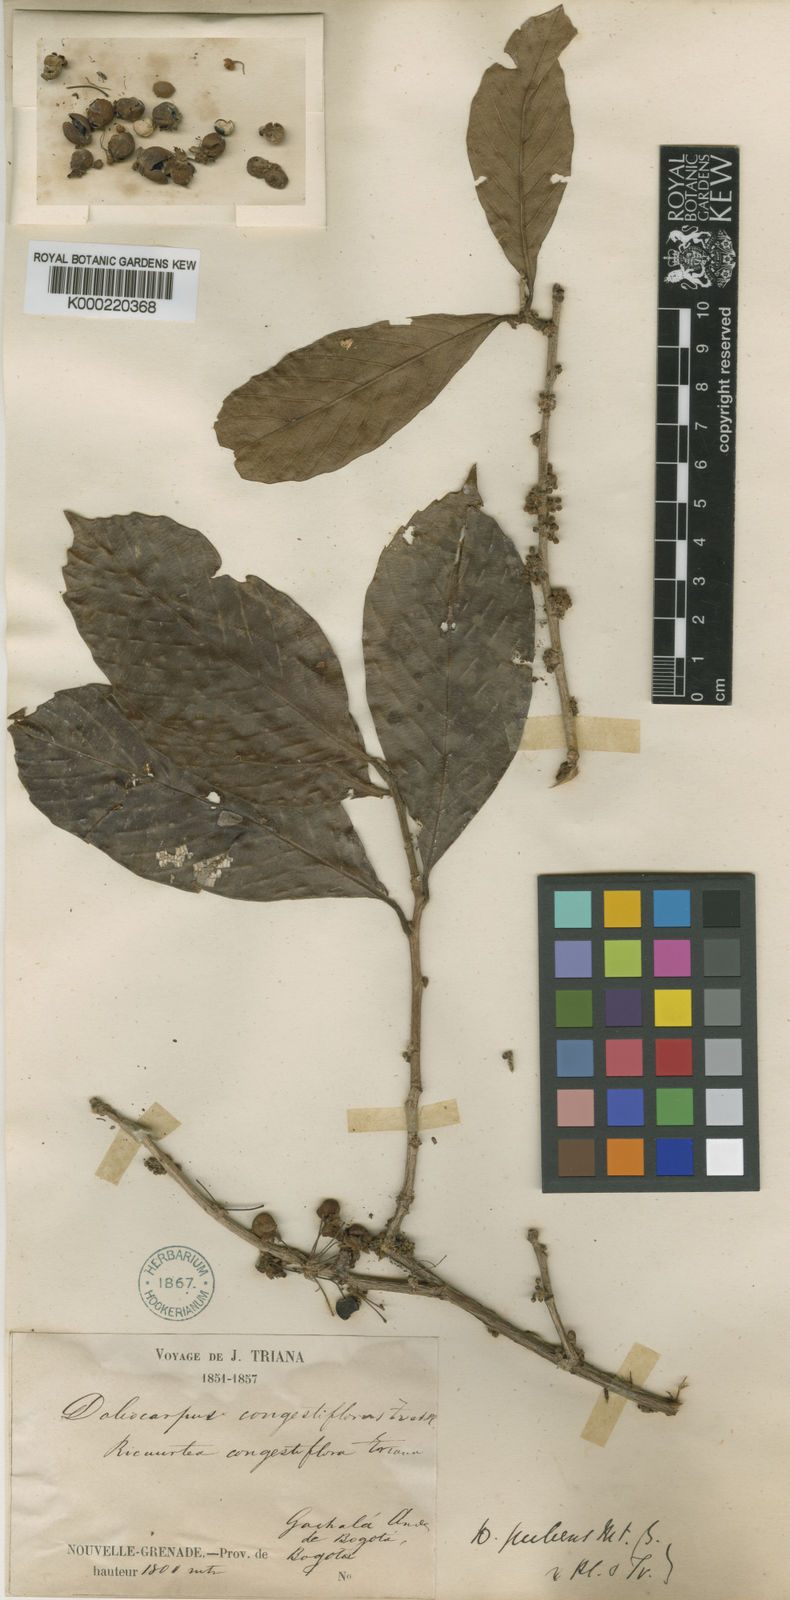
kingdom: Plantae
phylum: Tracheophyta
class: Magnoliopsida
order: Dilleniales
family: Dilleniaceae
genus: Doliocarpus
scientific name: Doliocarpus dentatus
